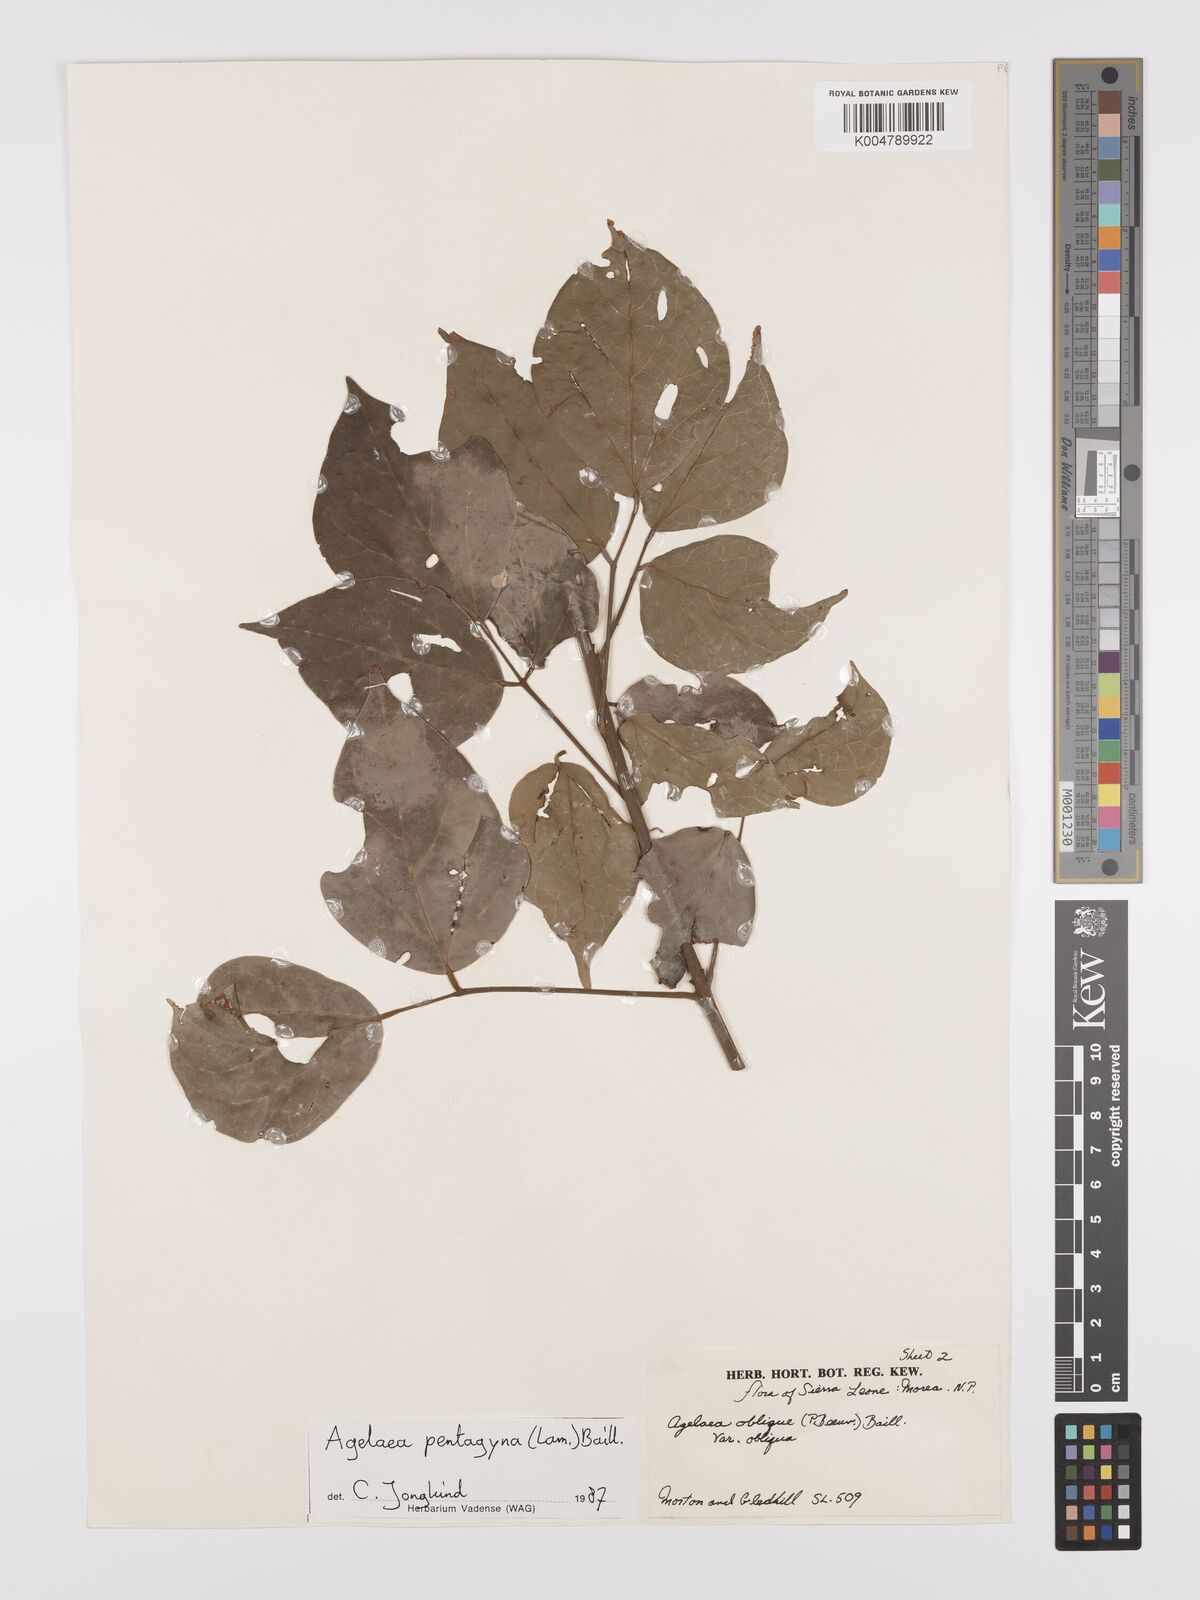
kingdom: Plantae
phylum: Tracheophyta
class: Magnoliopsida
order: Oxalidales
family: Connaraceae
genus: Agelaea
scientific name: Agelaea pentagyna
